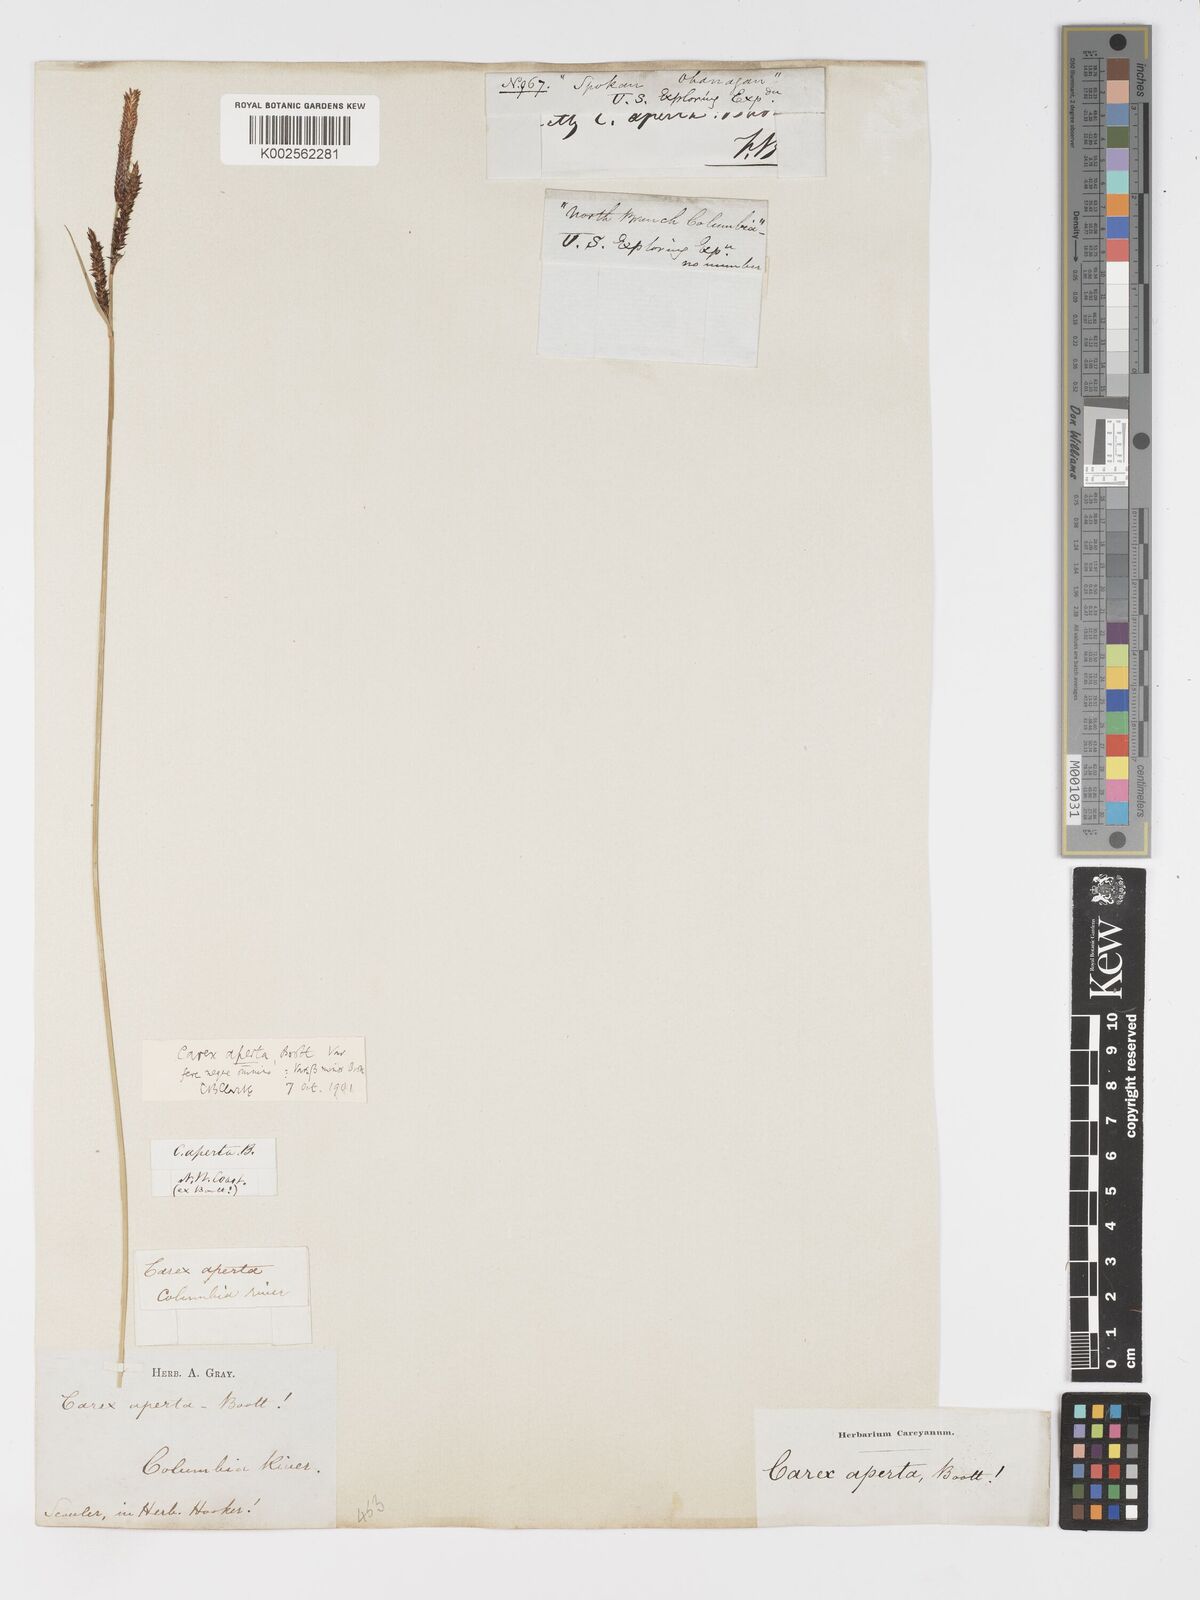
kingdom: Plantae
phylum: Tracheophyta
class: Liliopsida
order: Poales
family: Cyperaceae
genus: Carex
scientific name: Carex aperta
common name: Columbia sedge
